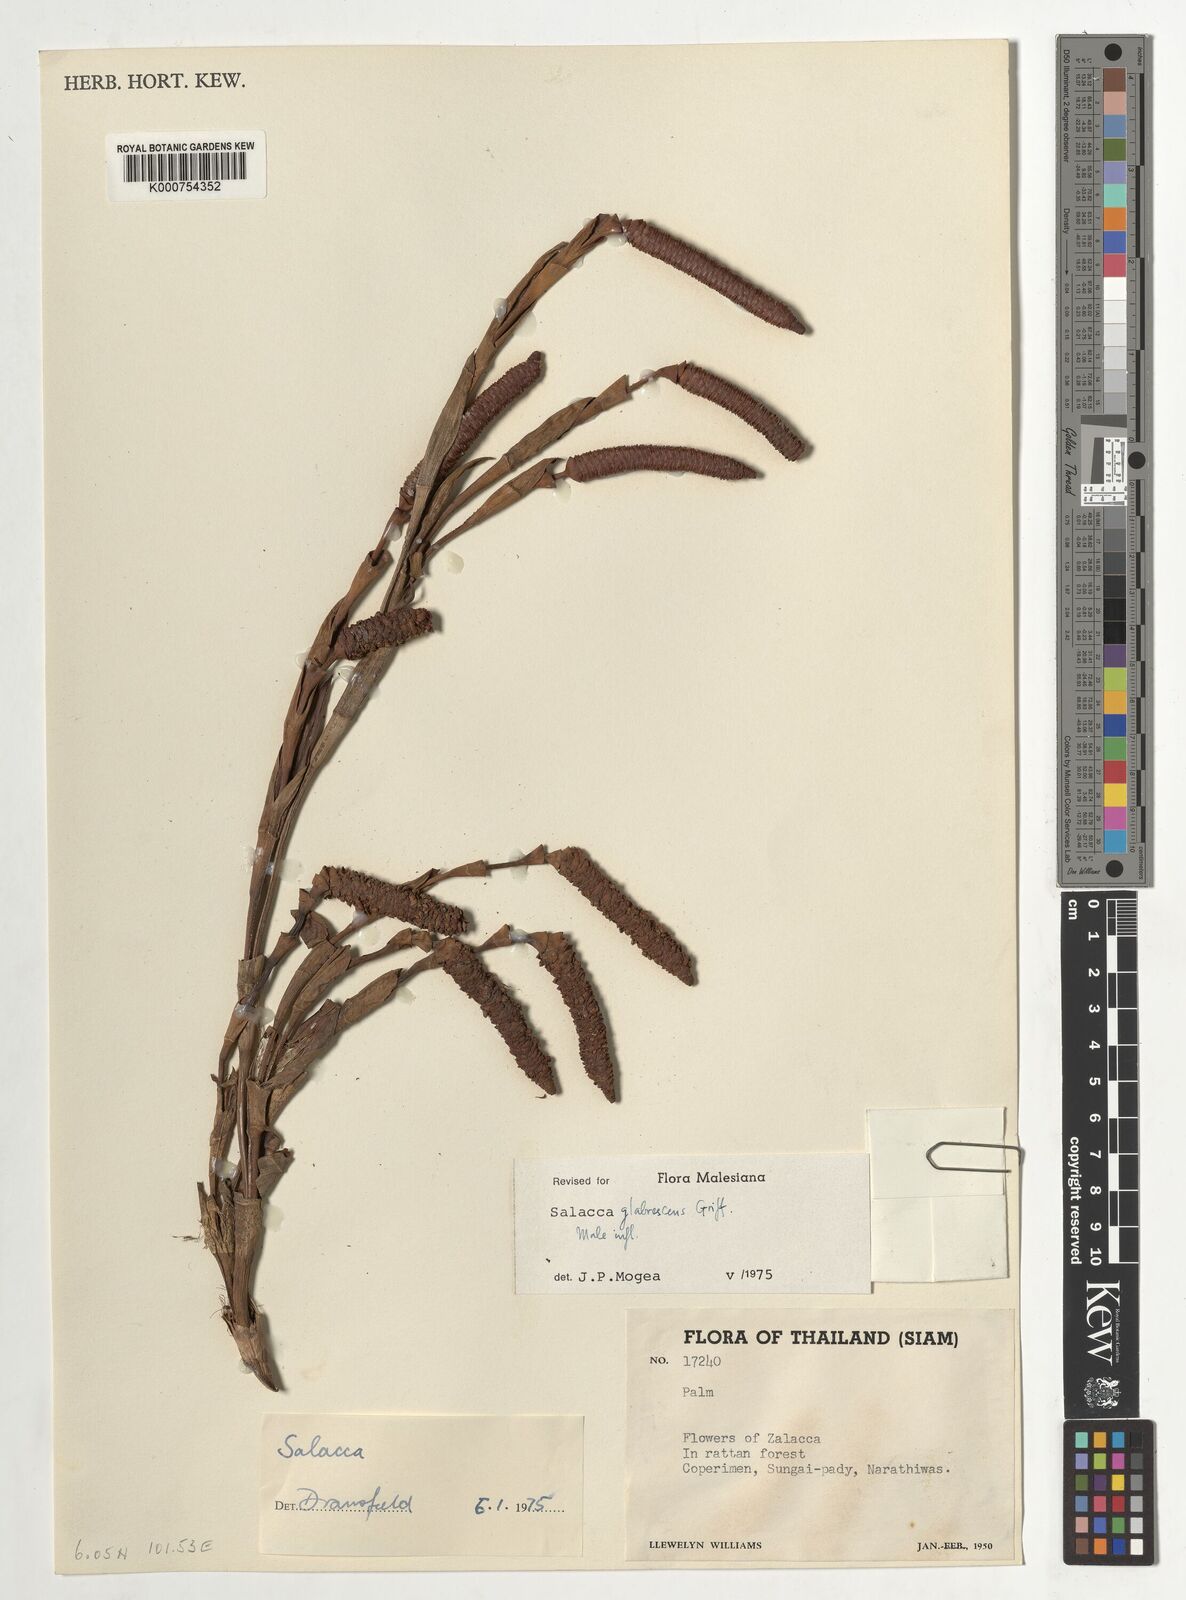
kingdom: Plantae
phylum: Tracheophyta
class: Liliopsida
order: Arecales
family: Arecaceae
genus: Salacca
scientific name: Salacca glabrescens
